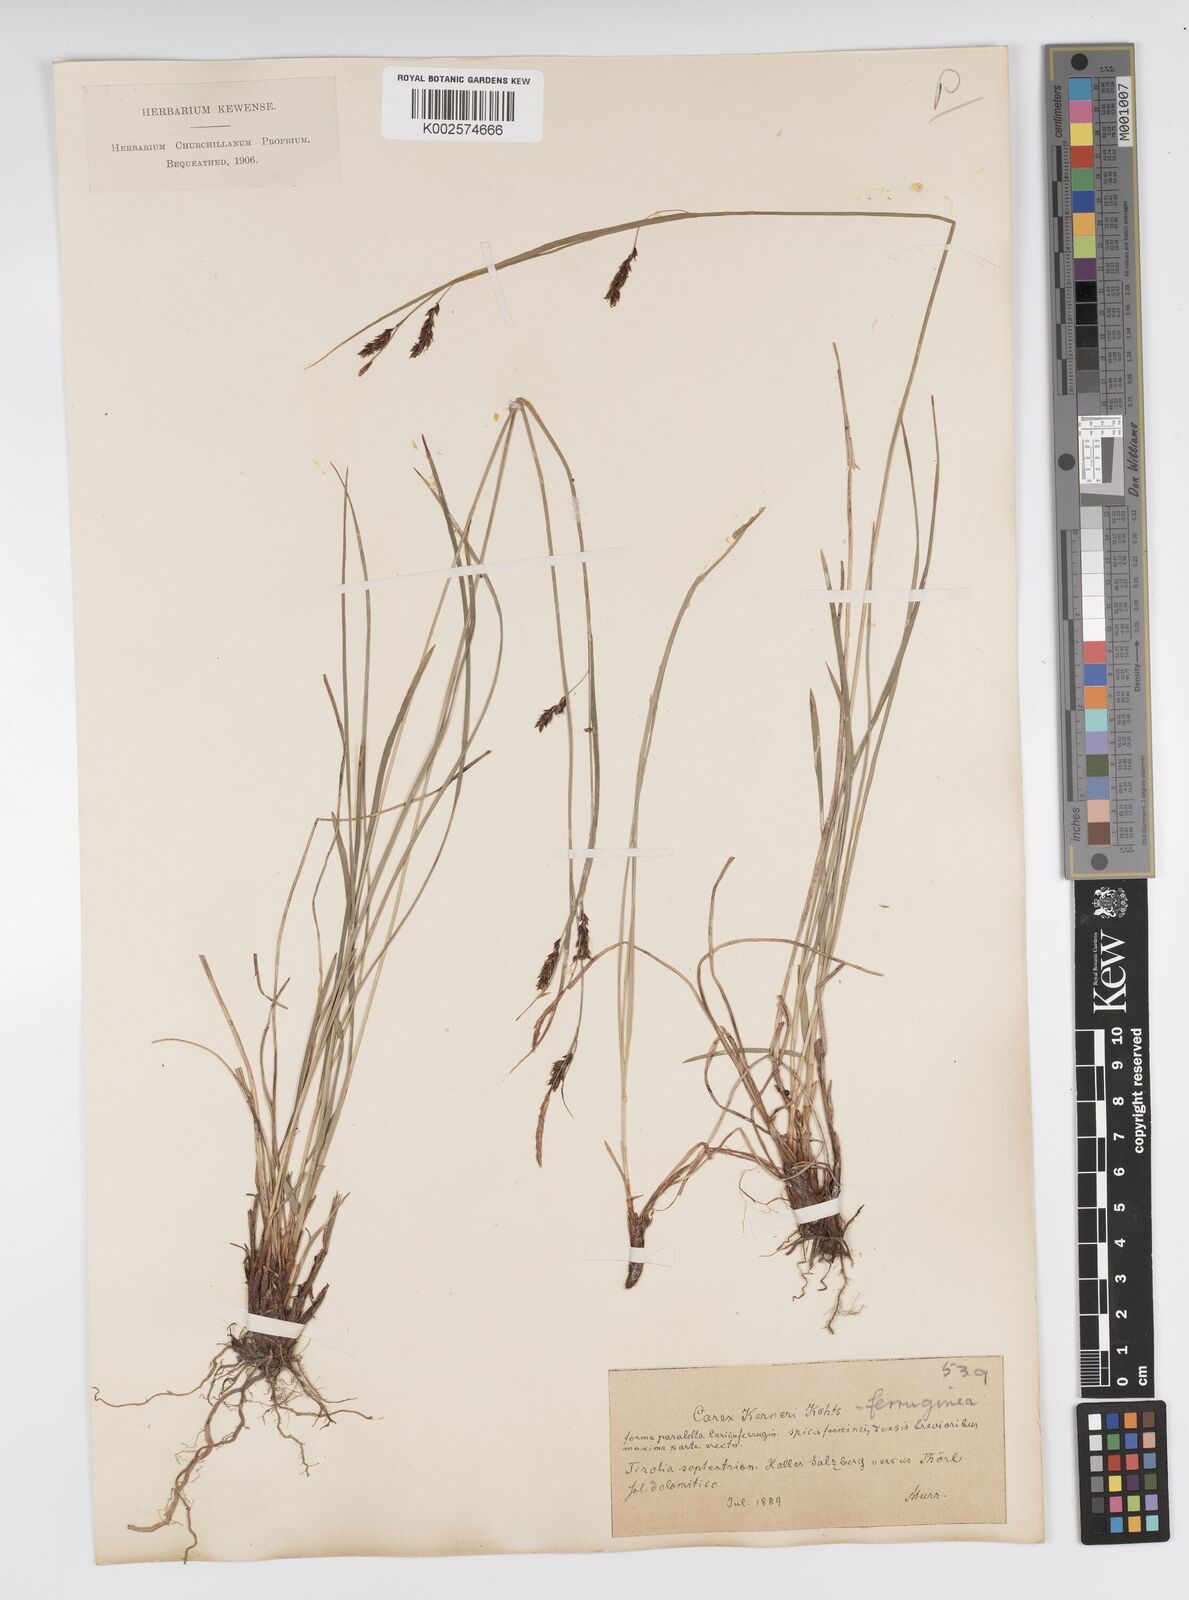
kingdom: Plantae
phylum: Tracheophyta
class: Liliopsida
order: Poales
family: Cyperaceae
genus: Carex
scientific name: Carex ferruginea
